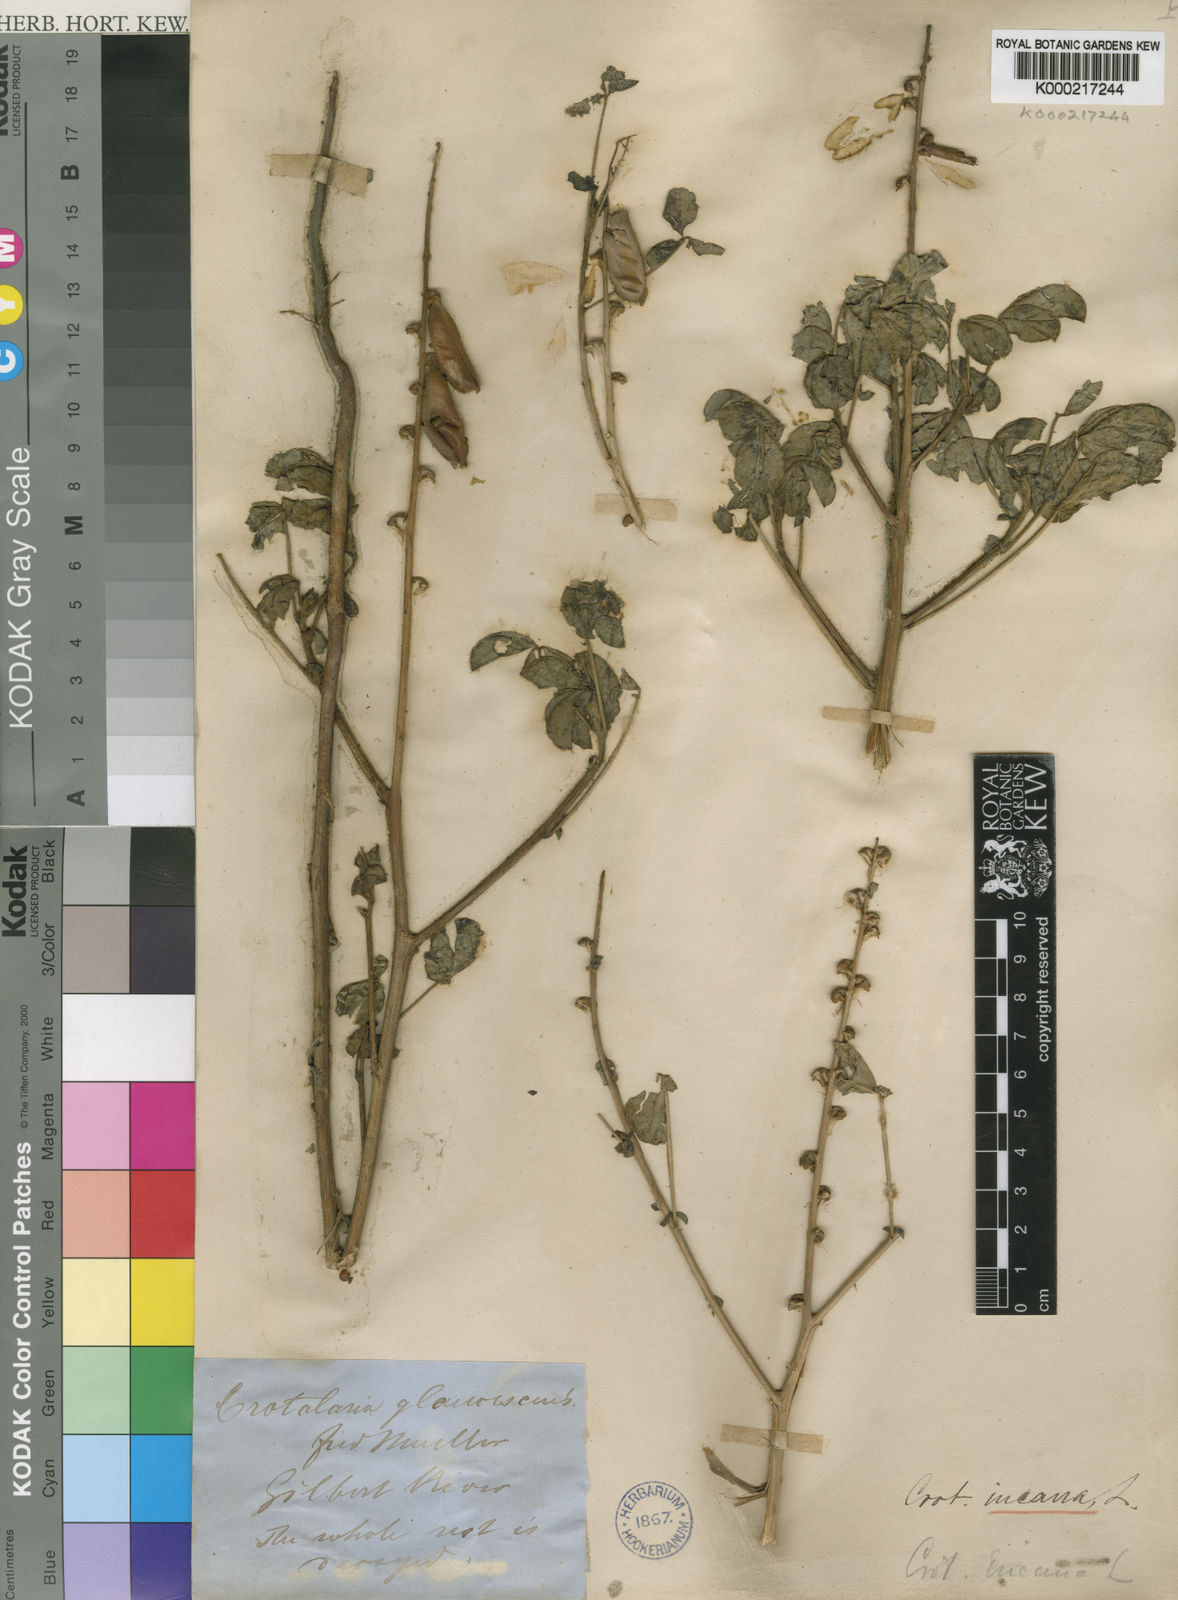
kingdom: Plantae
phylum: Tracheophyta
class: Magnoliopsida
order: Fabales
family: Fabaceae
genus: Crotalaria
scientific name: Crotalaria incana
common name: Shakeshake
